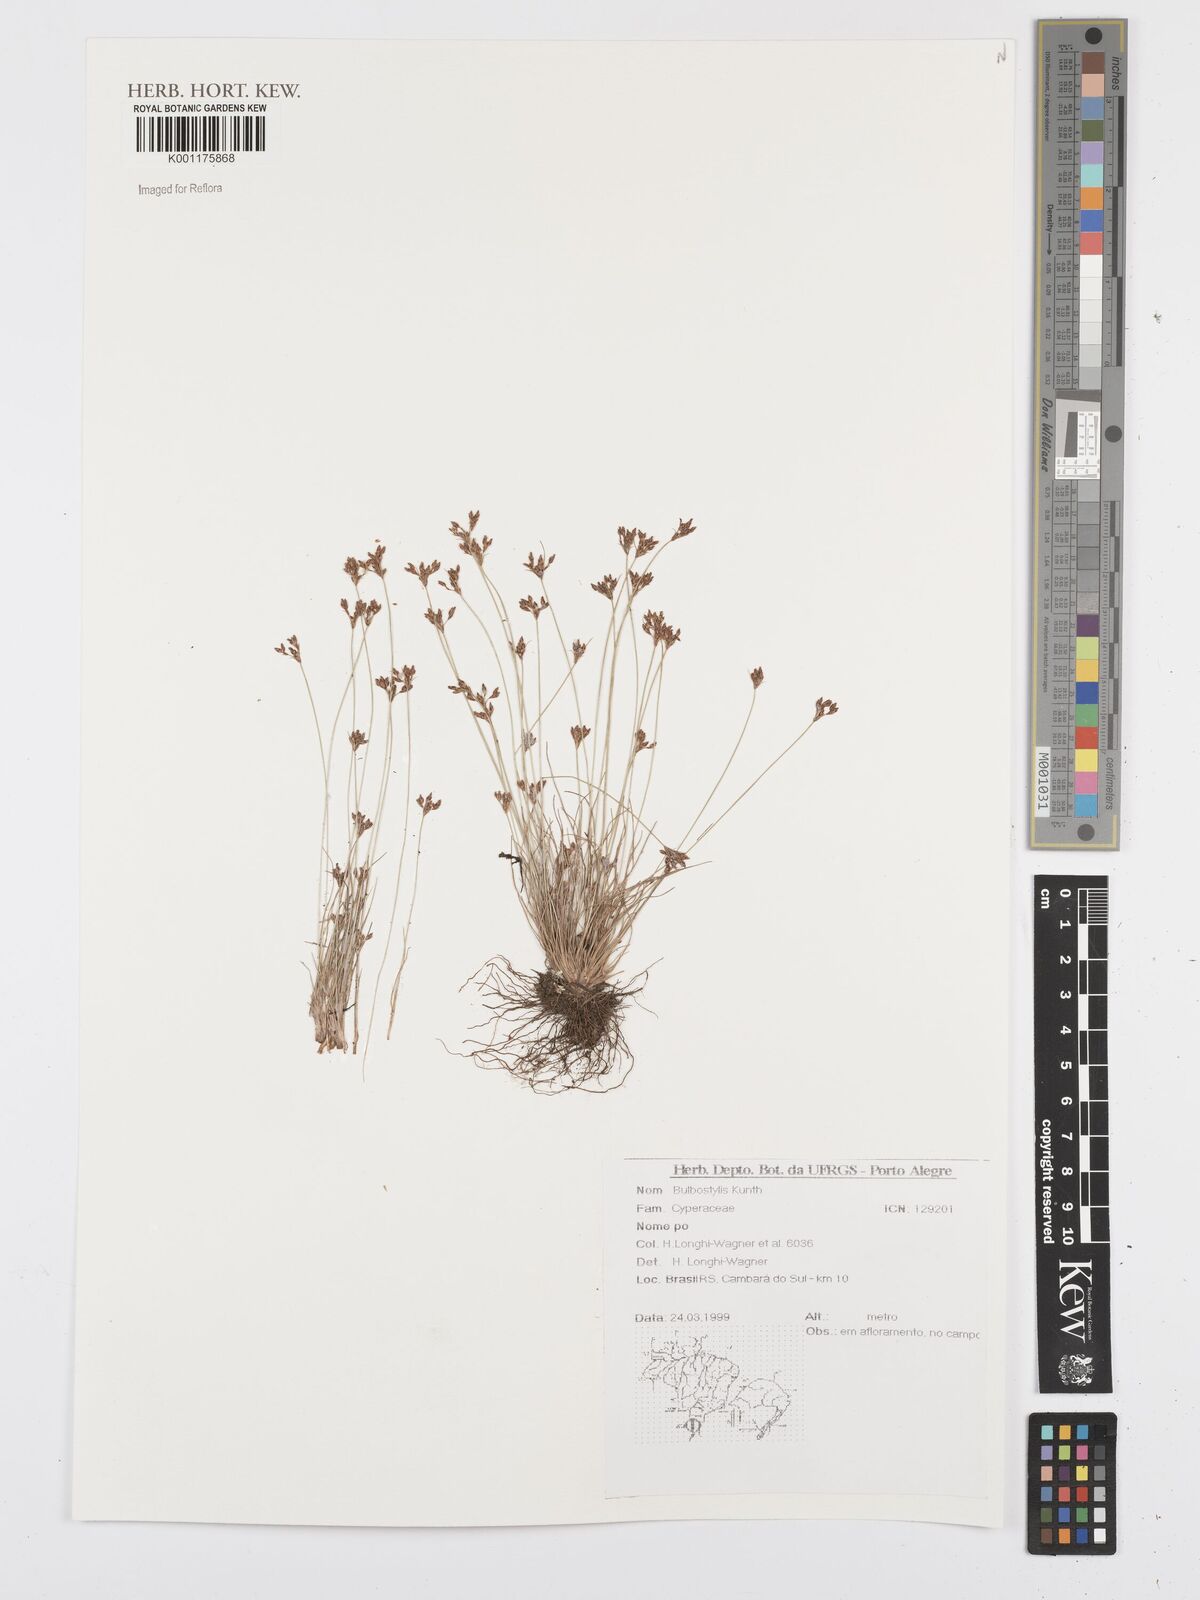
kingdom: Plantae
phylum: Tracheophyta
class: Liliopsida
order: Poales
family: Cyperaceae
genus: Bulbostylis
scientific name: Bulbostylis
